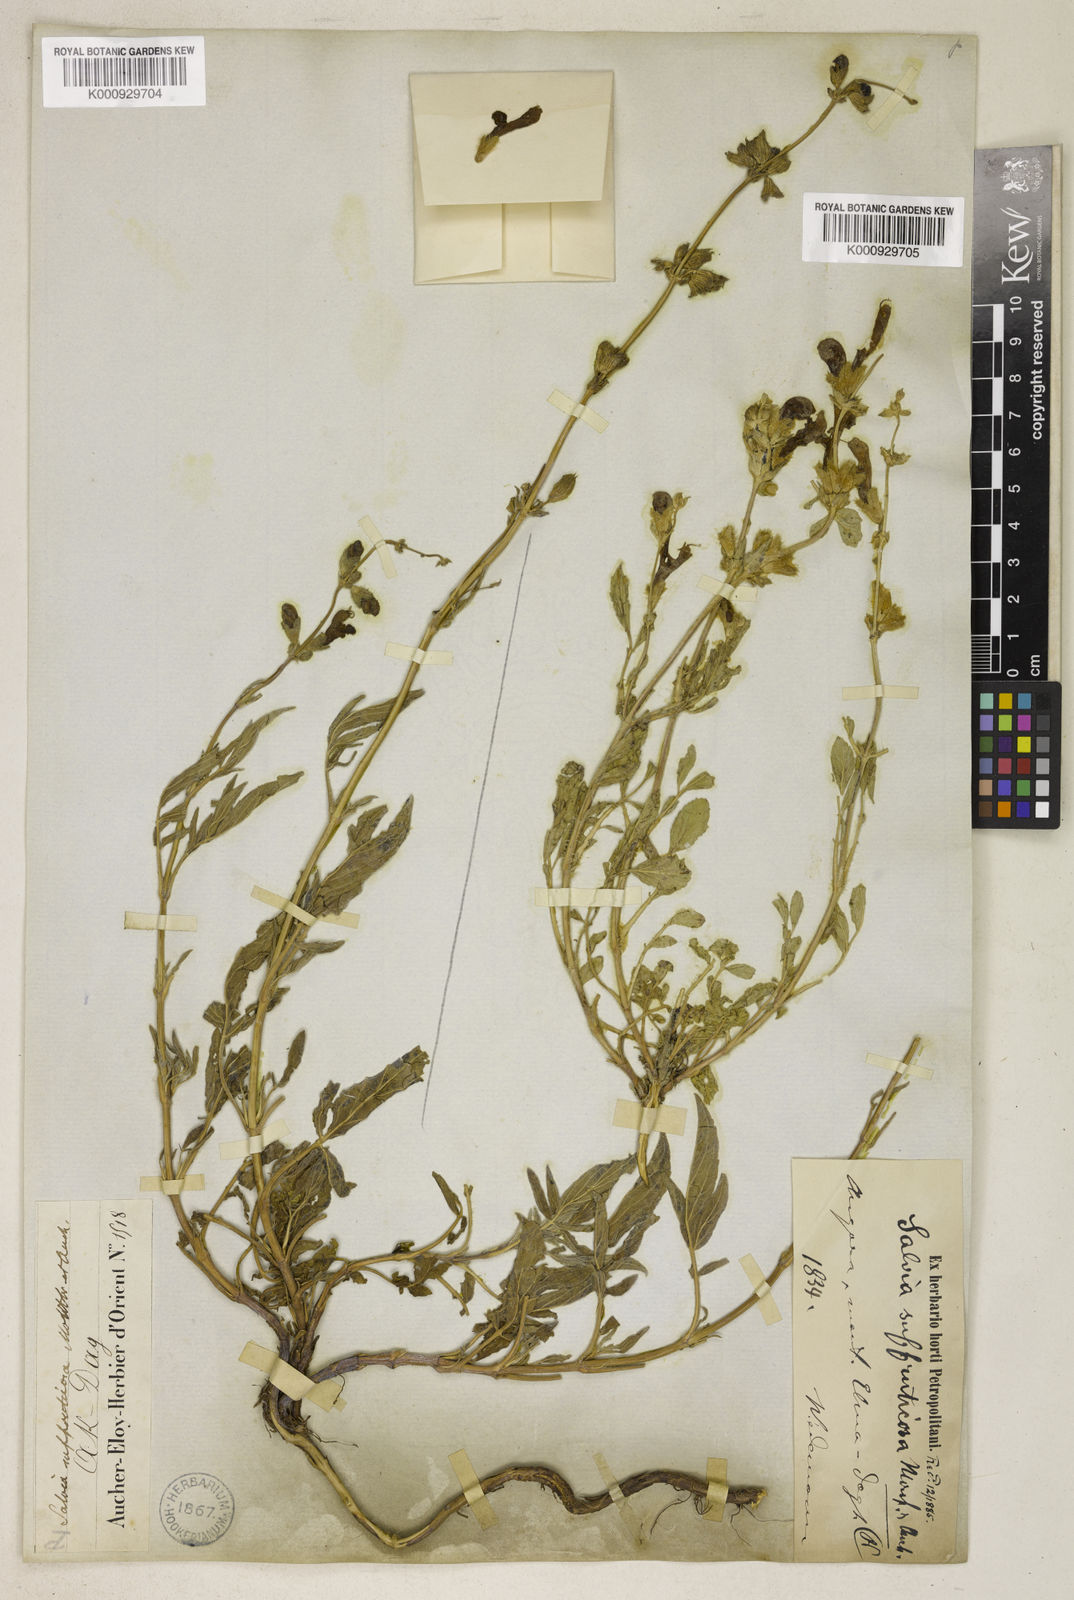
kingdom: Plantae
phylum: Tracheophyta
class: Magnoliopsida
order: Lamiales
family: Lamiaceae
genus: Salvia
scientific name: Salvia suffruticosa
